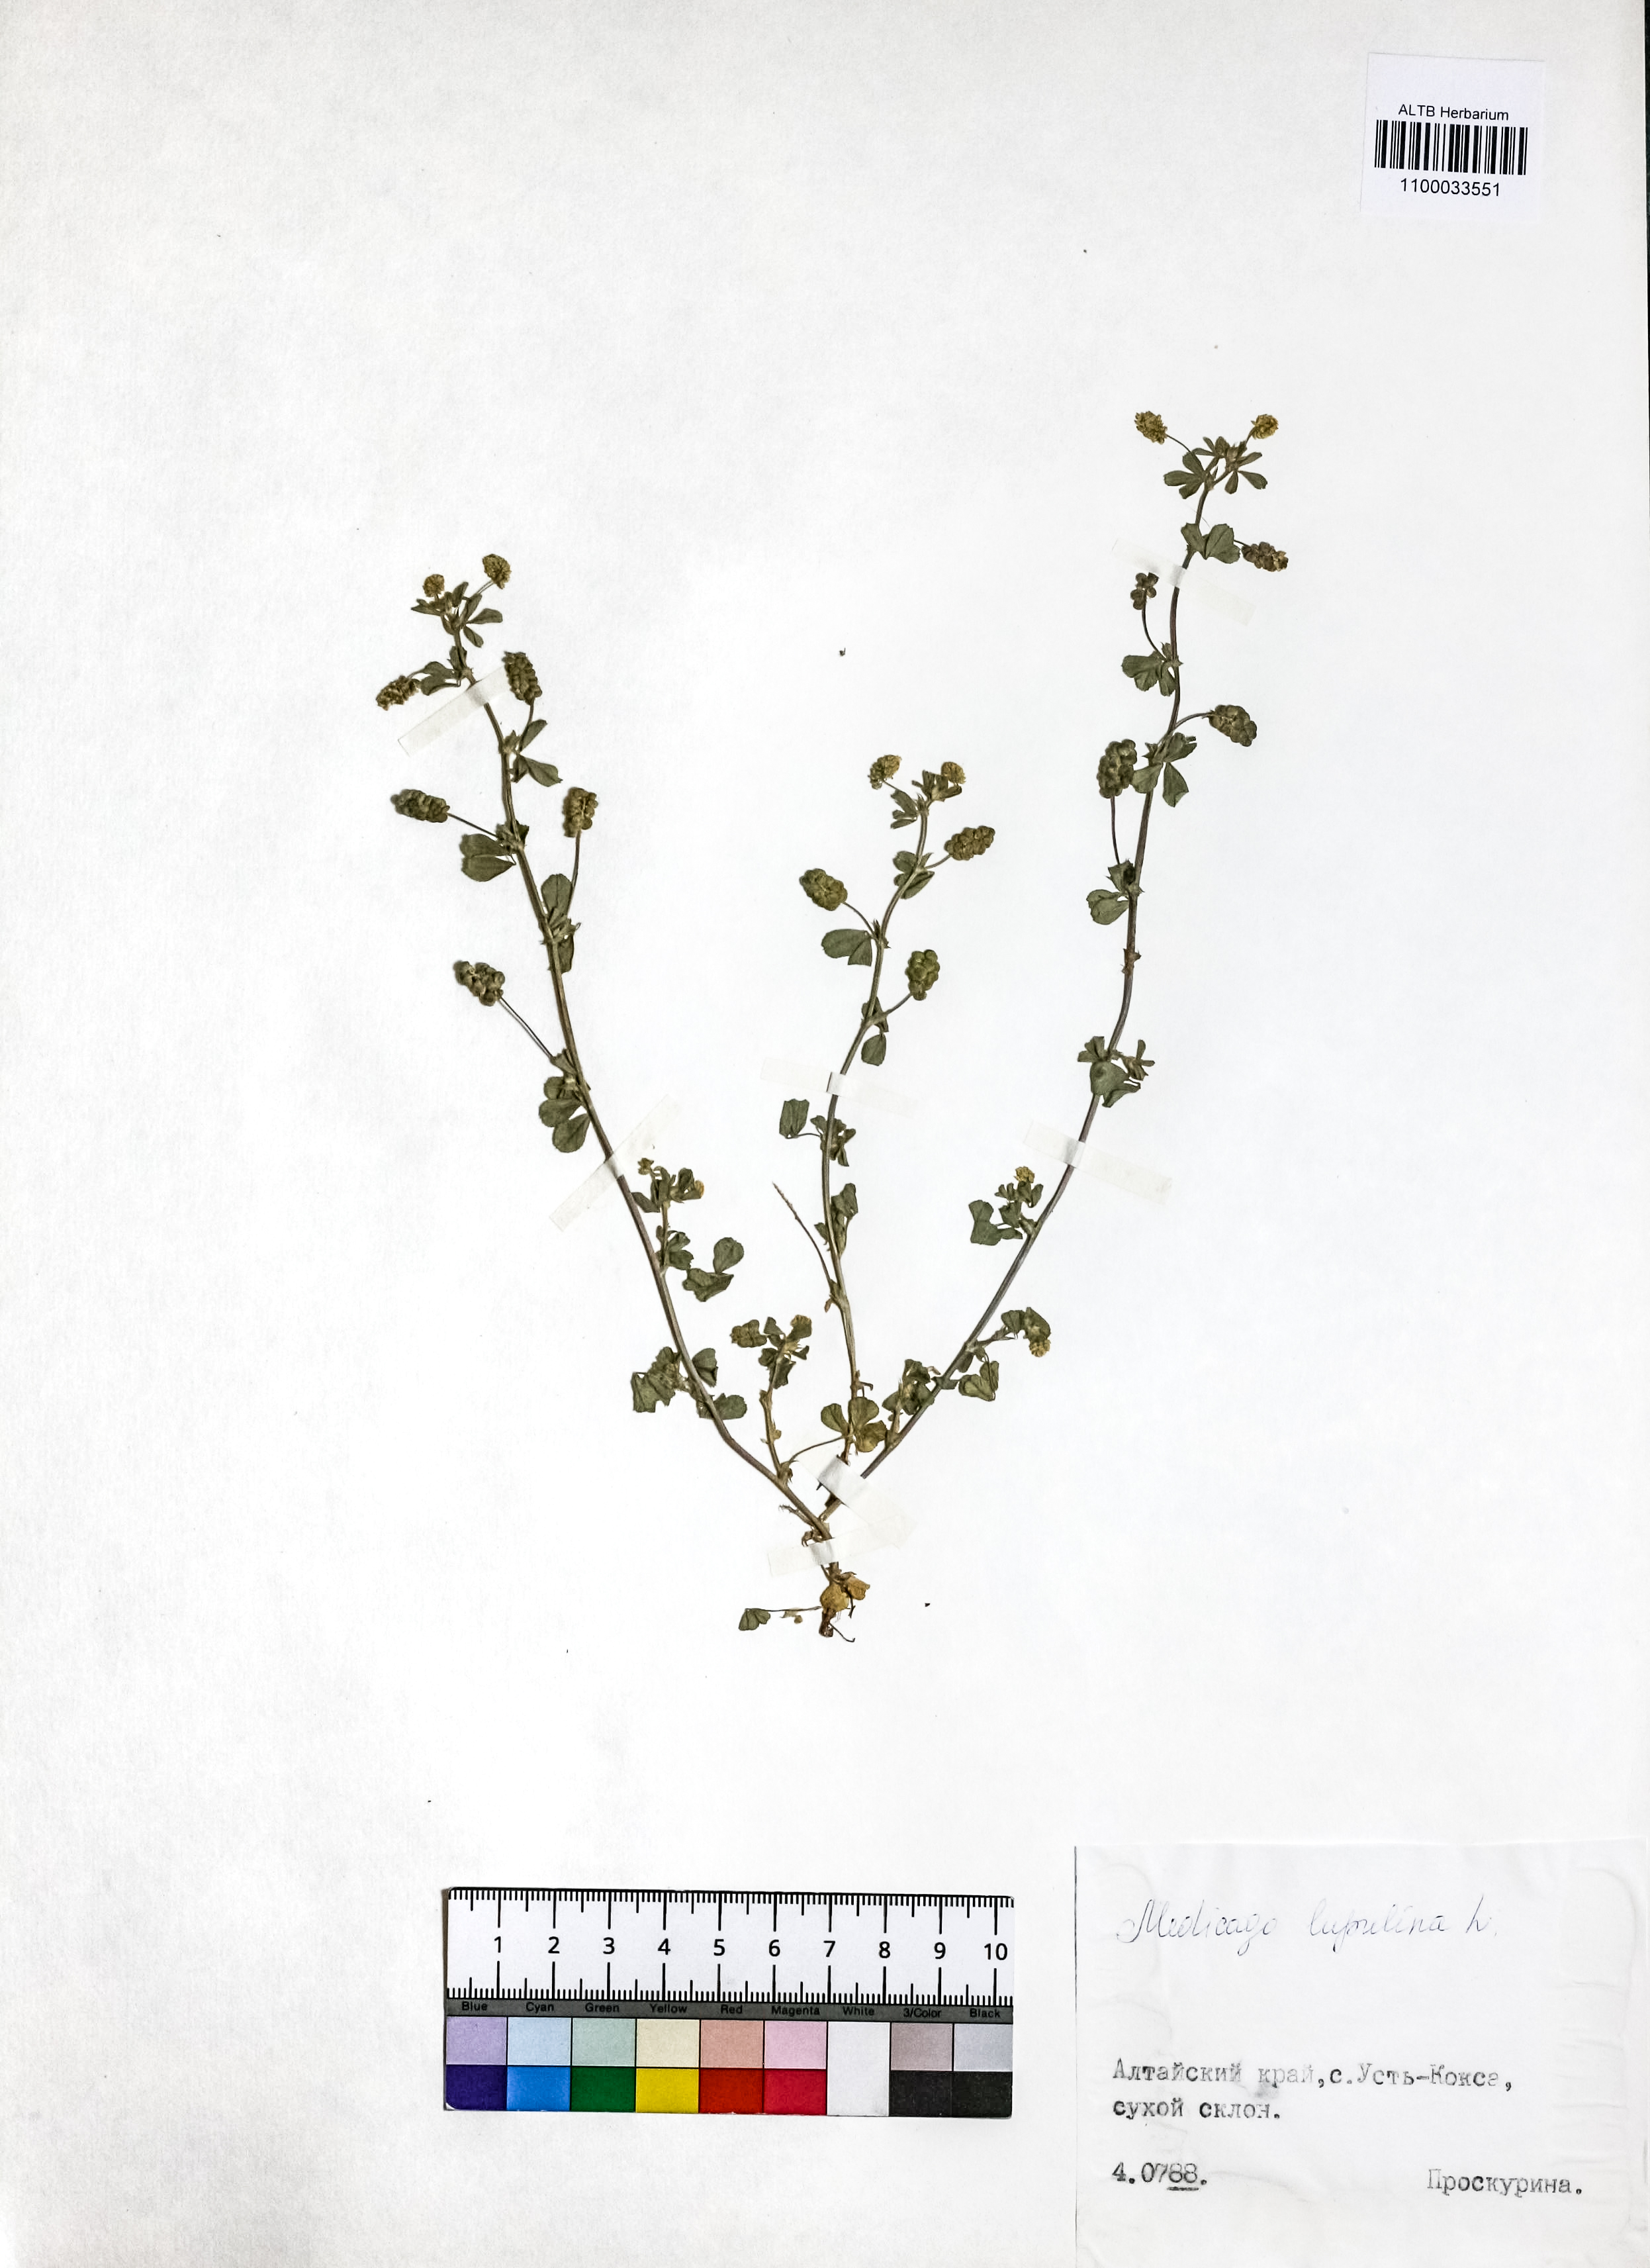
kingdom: Plantae
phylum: Tracheophyta
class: Magnoliopsida
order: Fabales
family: Fabaceae
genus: Medicago
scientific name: Medicago lupulina
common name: Black medick
